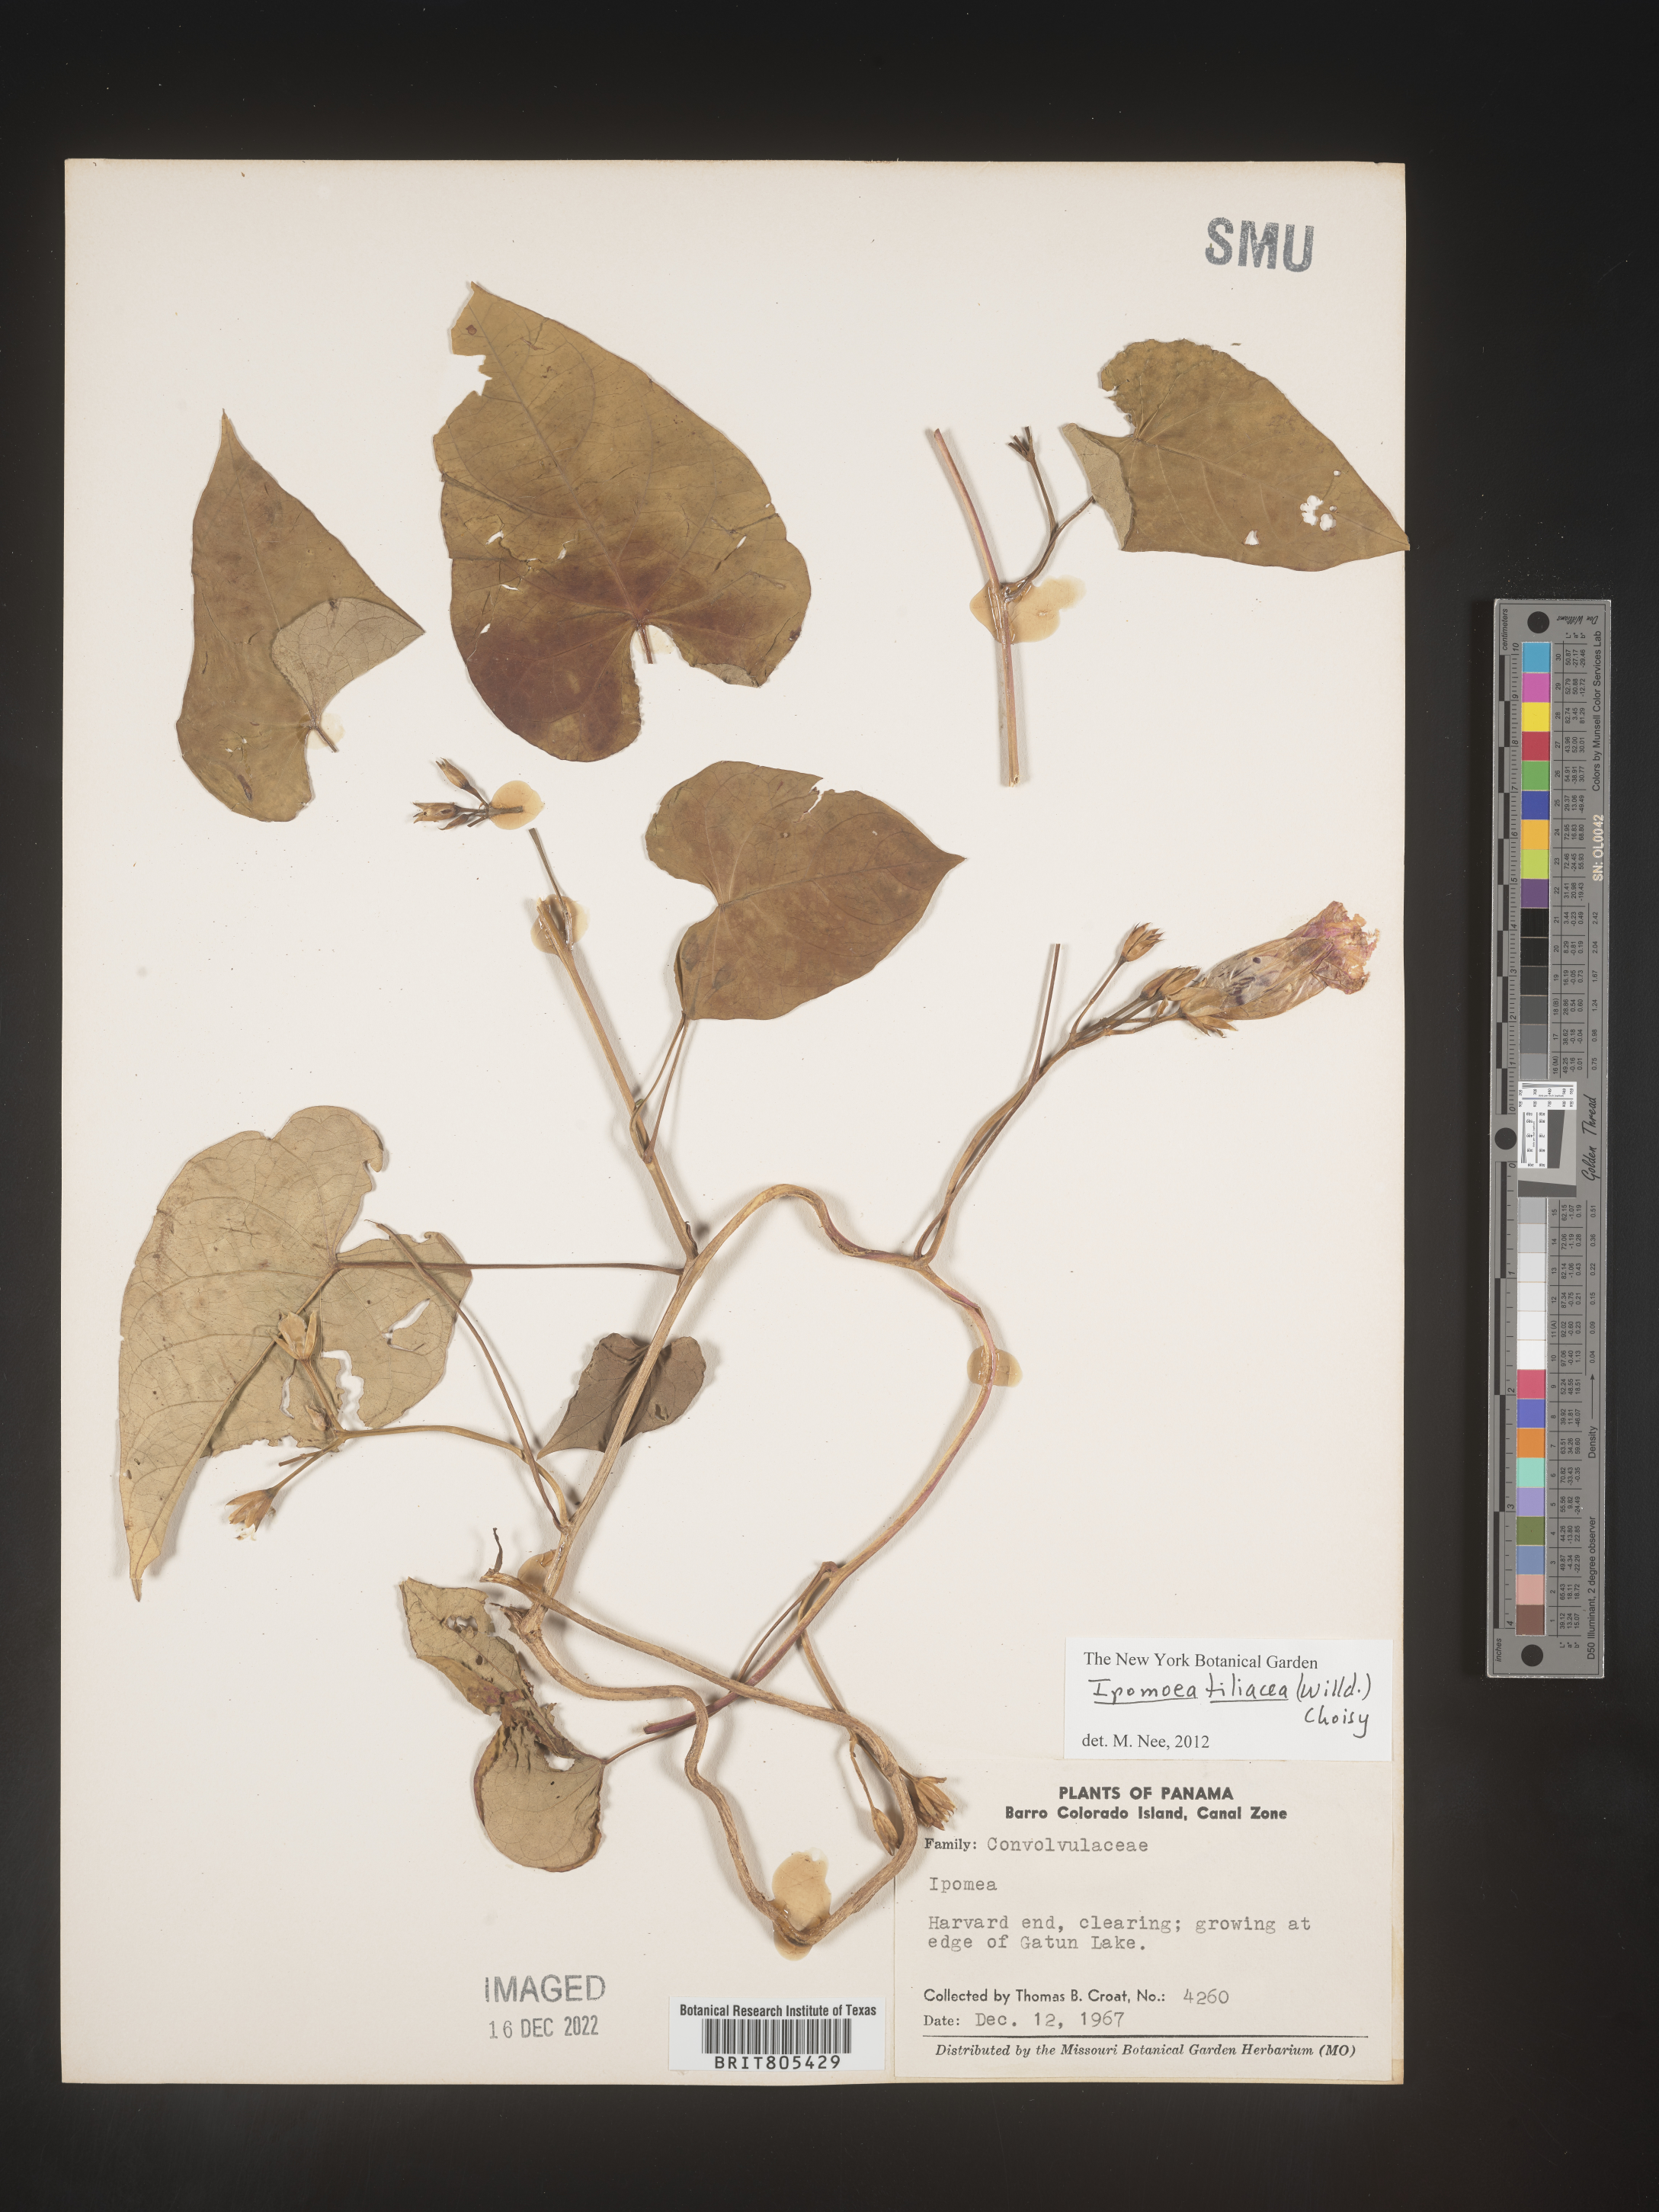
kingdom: Plantae
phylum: Tracheophyta
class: Magnoliopsida
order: Solanales
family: Convolvulaceae
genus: Ipomoea
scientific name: Ipomoea
